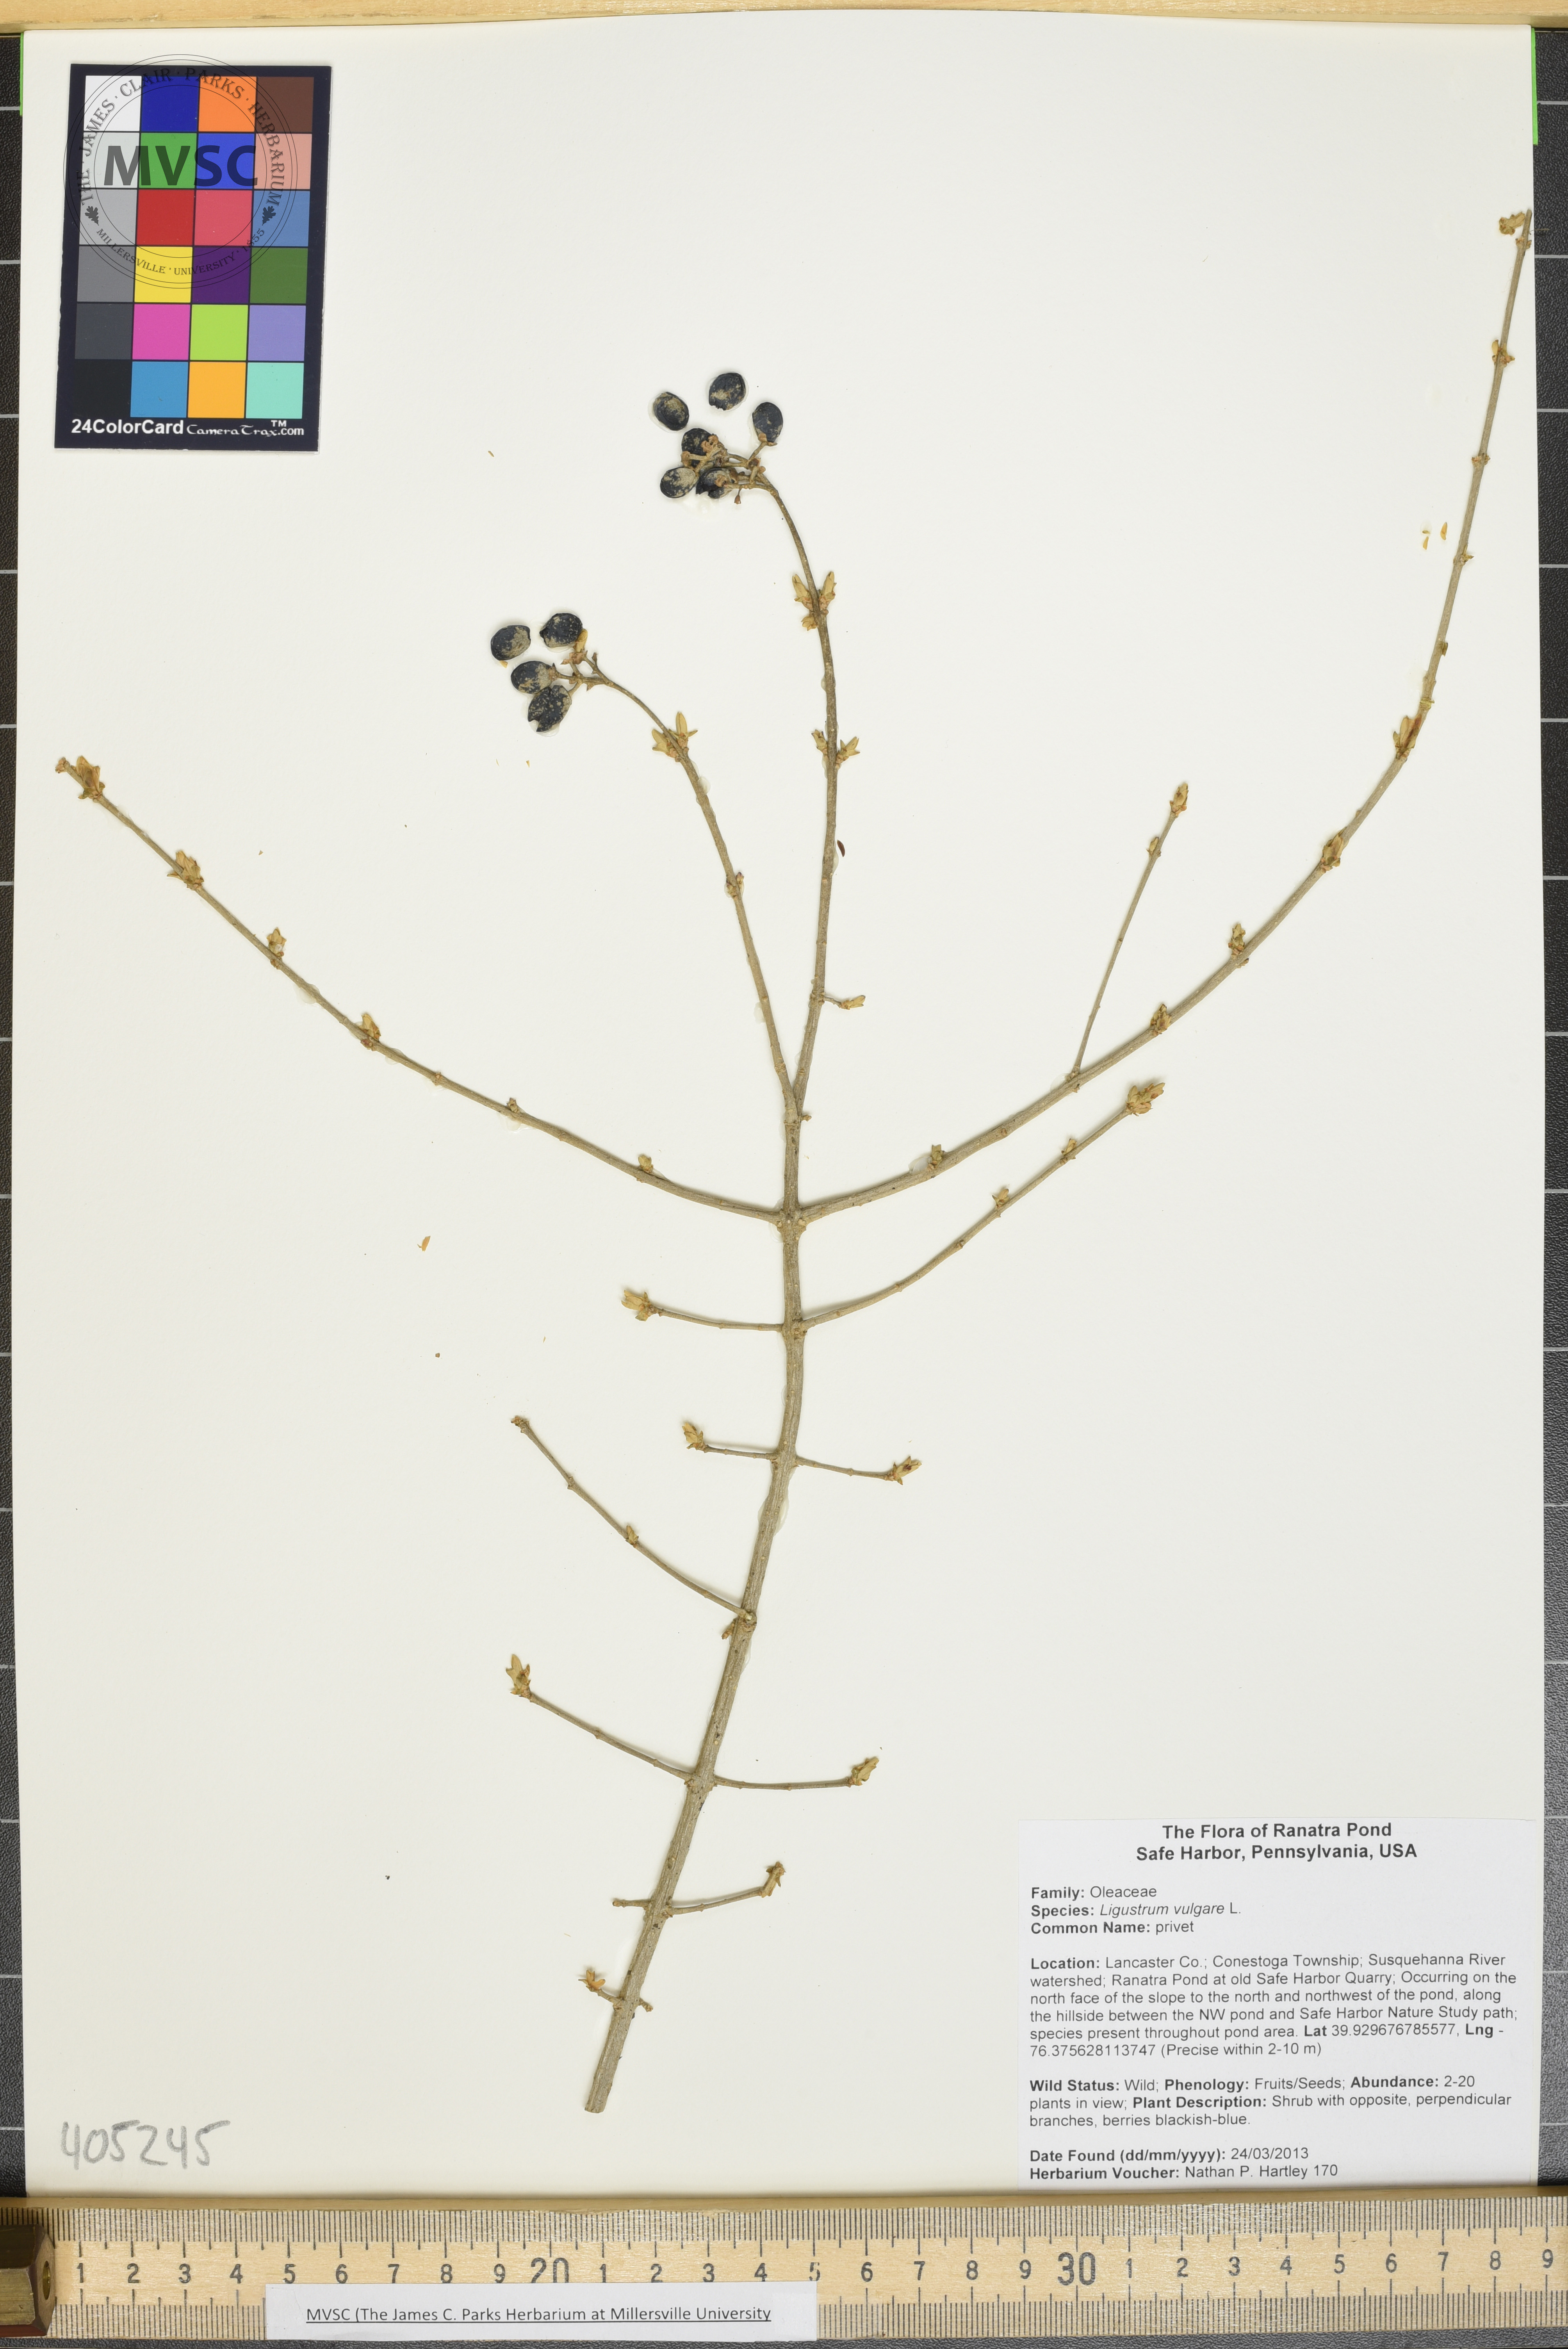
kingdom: Plantae
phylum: Tracheophyta
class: Magnoliopsida
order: Lamiales
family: Oleaceae
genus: Ligustrum
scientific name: Ligustrum obtusifolium
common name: privet
